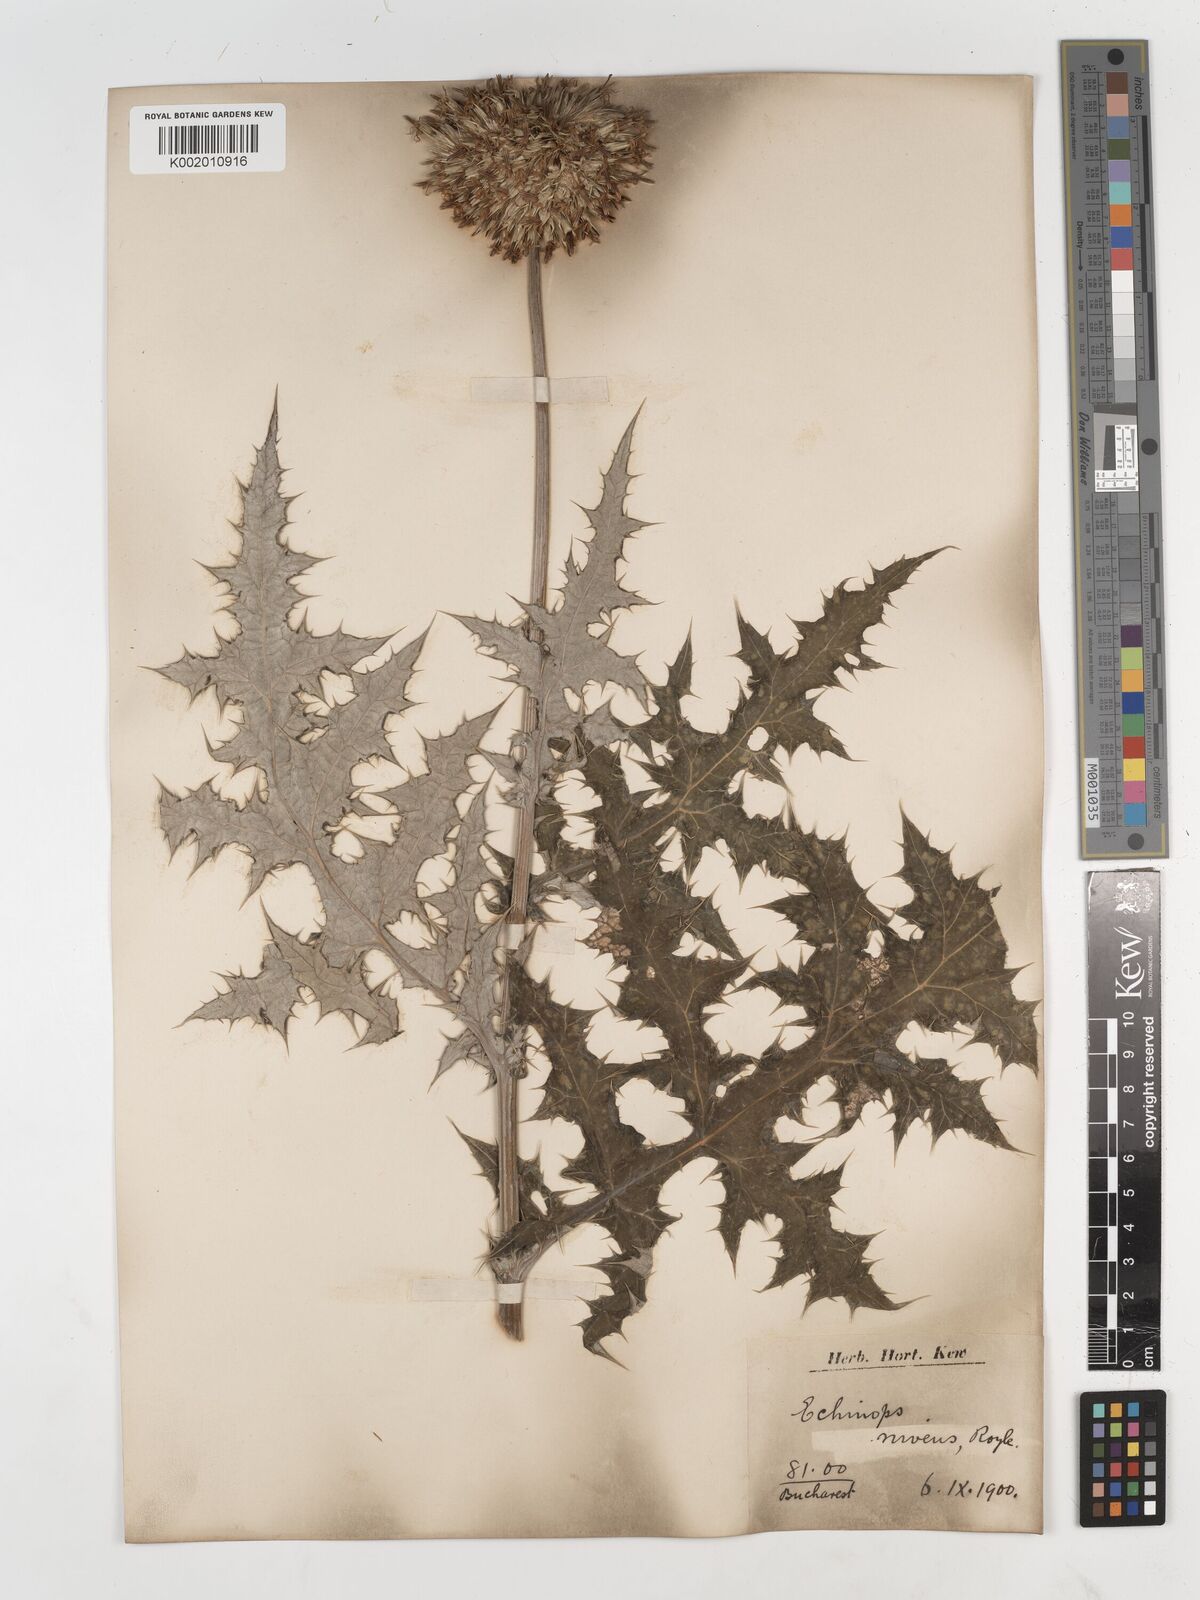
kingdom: Plantae
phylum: Tracheophyta
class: Magnoliopsida
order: Asterales
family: Asteraceae
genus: Echinops
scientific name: Echinops niveus
